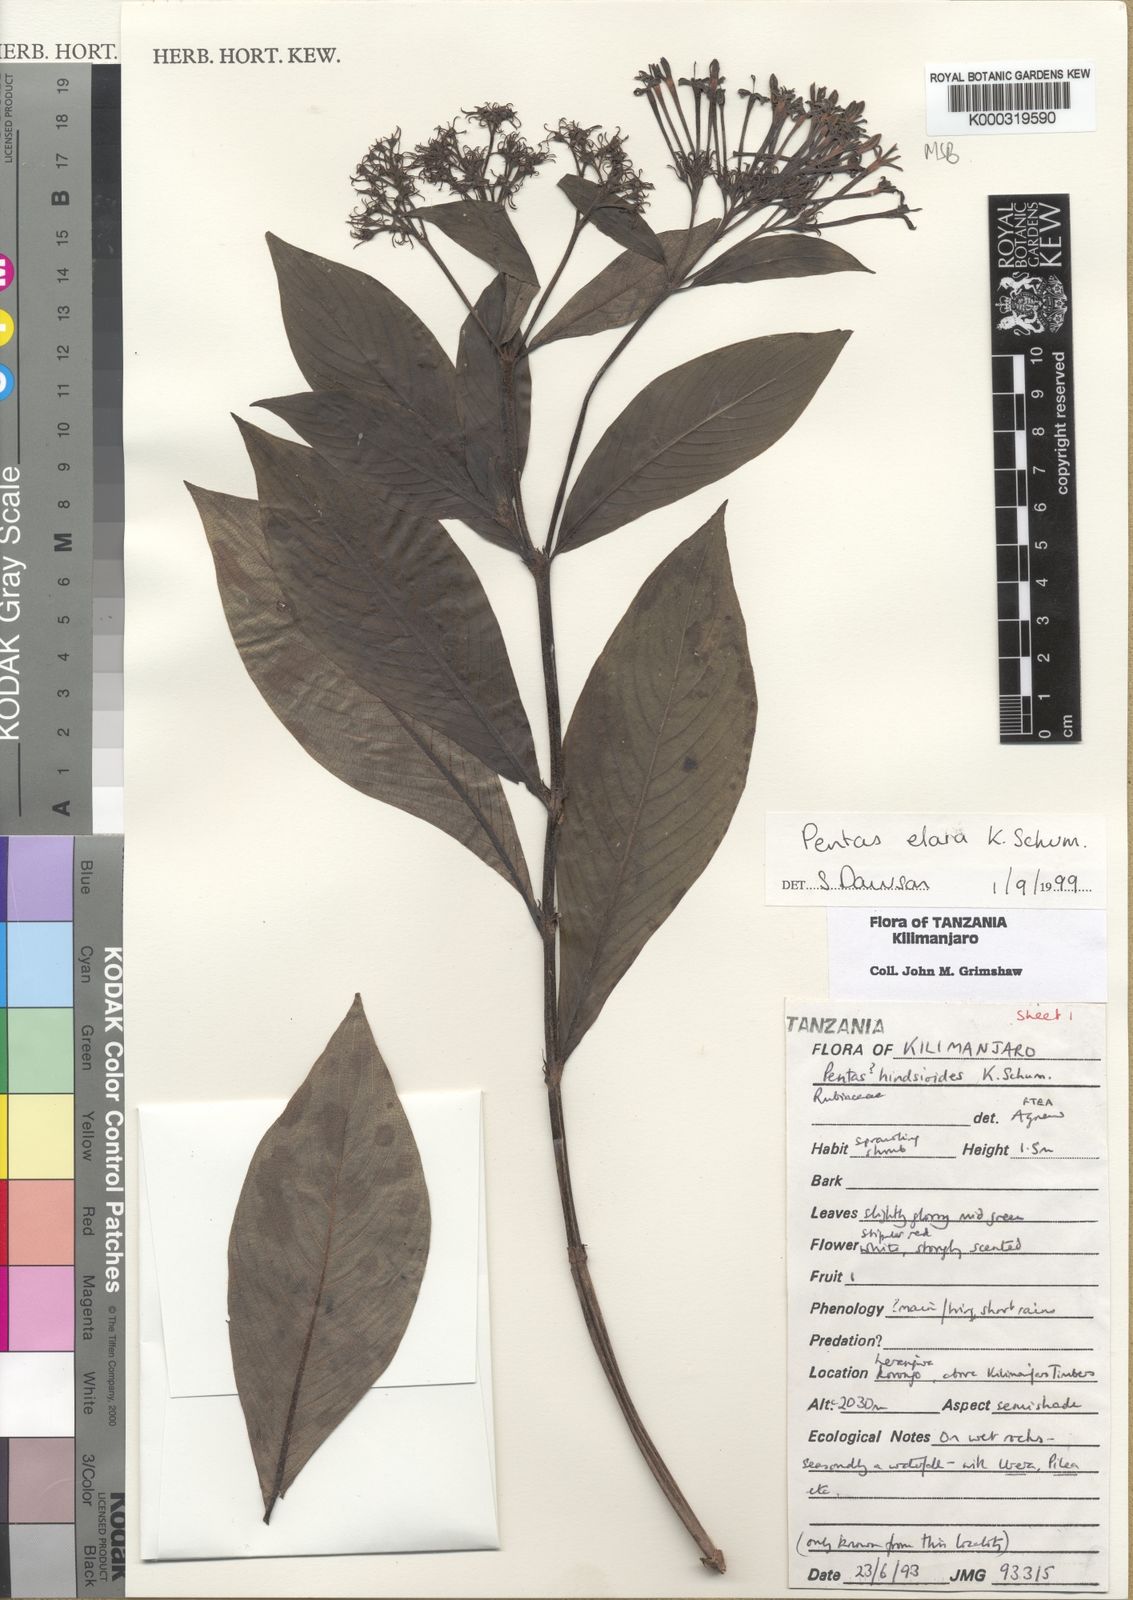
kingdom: Plantae
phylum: Tracheophyta
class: Magnoliopsida
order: Gentianales
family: Rubiaceae
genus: Phyllopentas
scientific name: Phyllopentas elata
